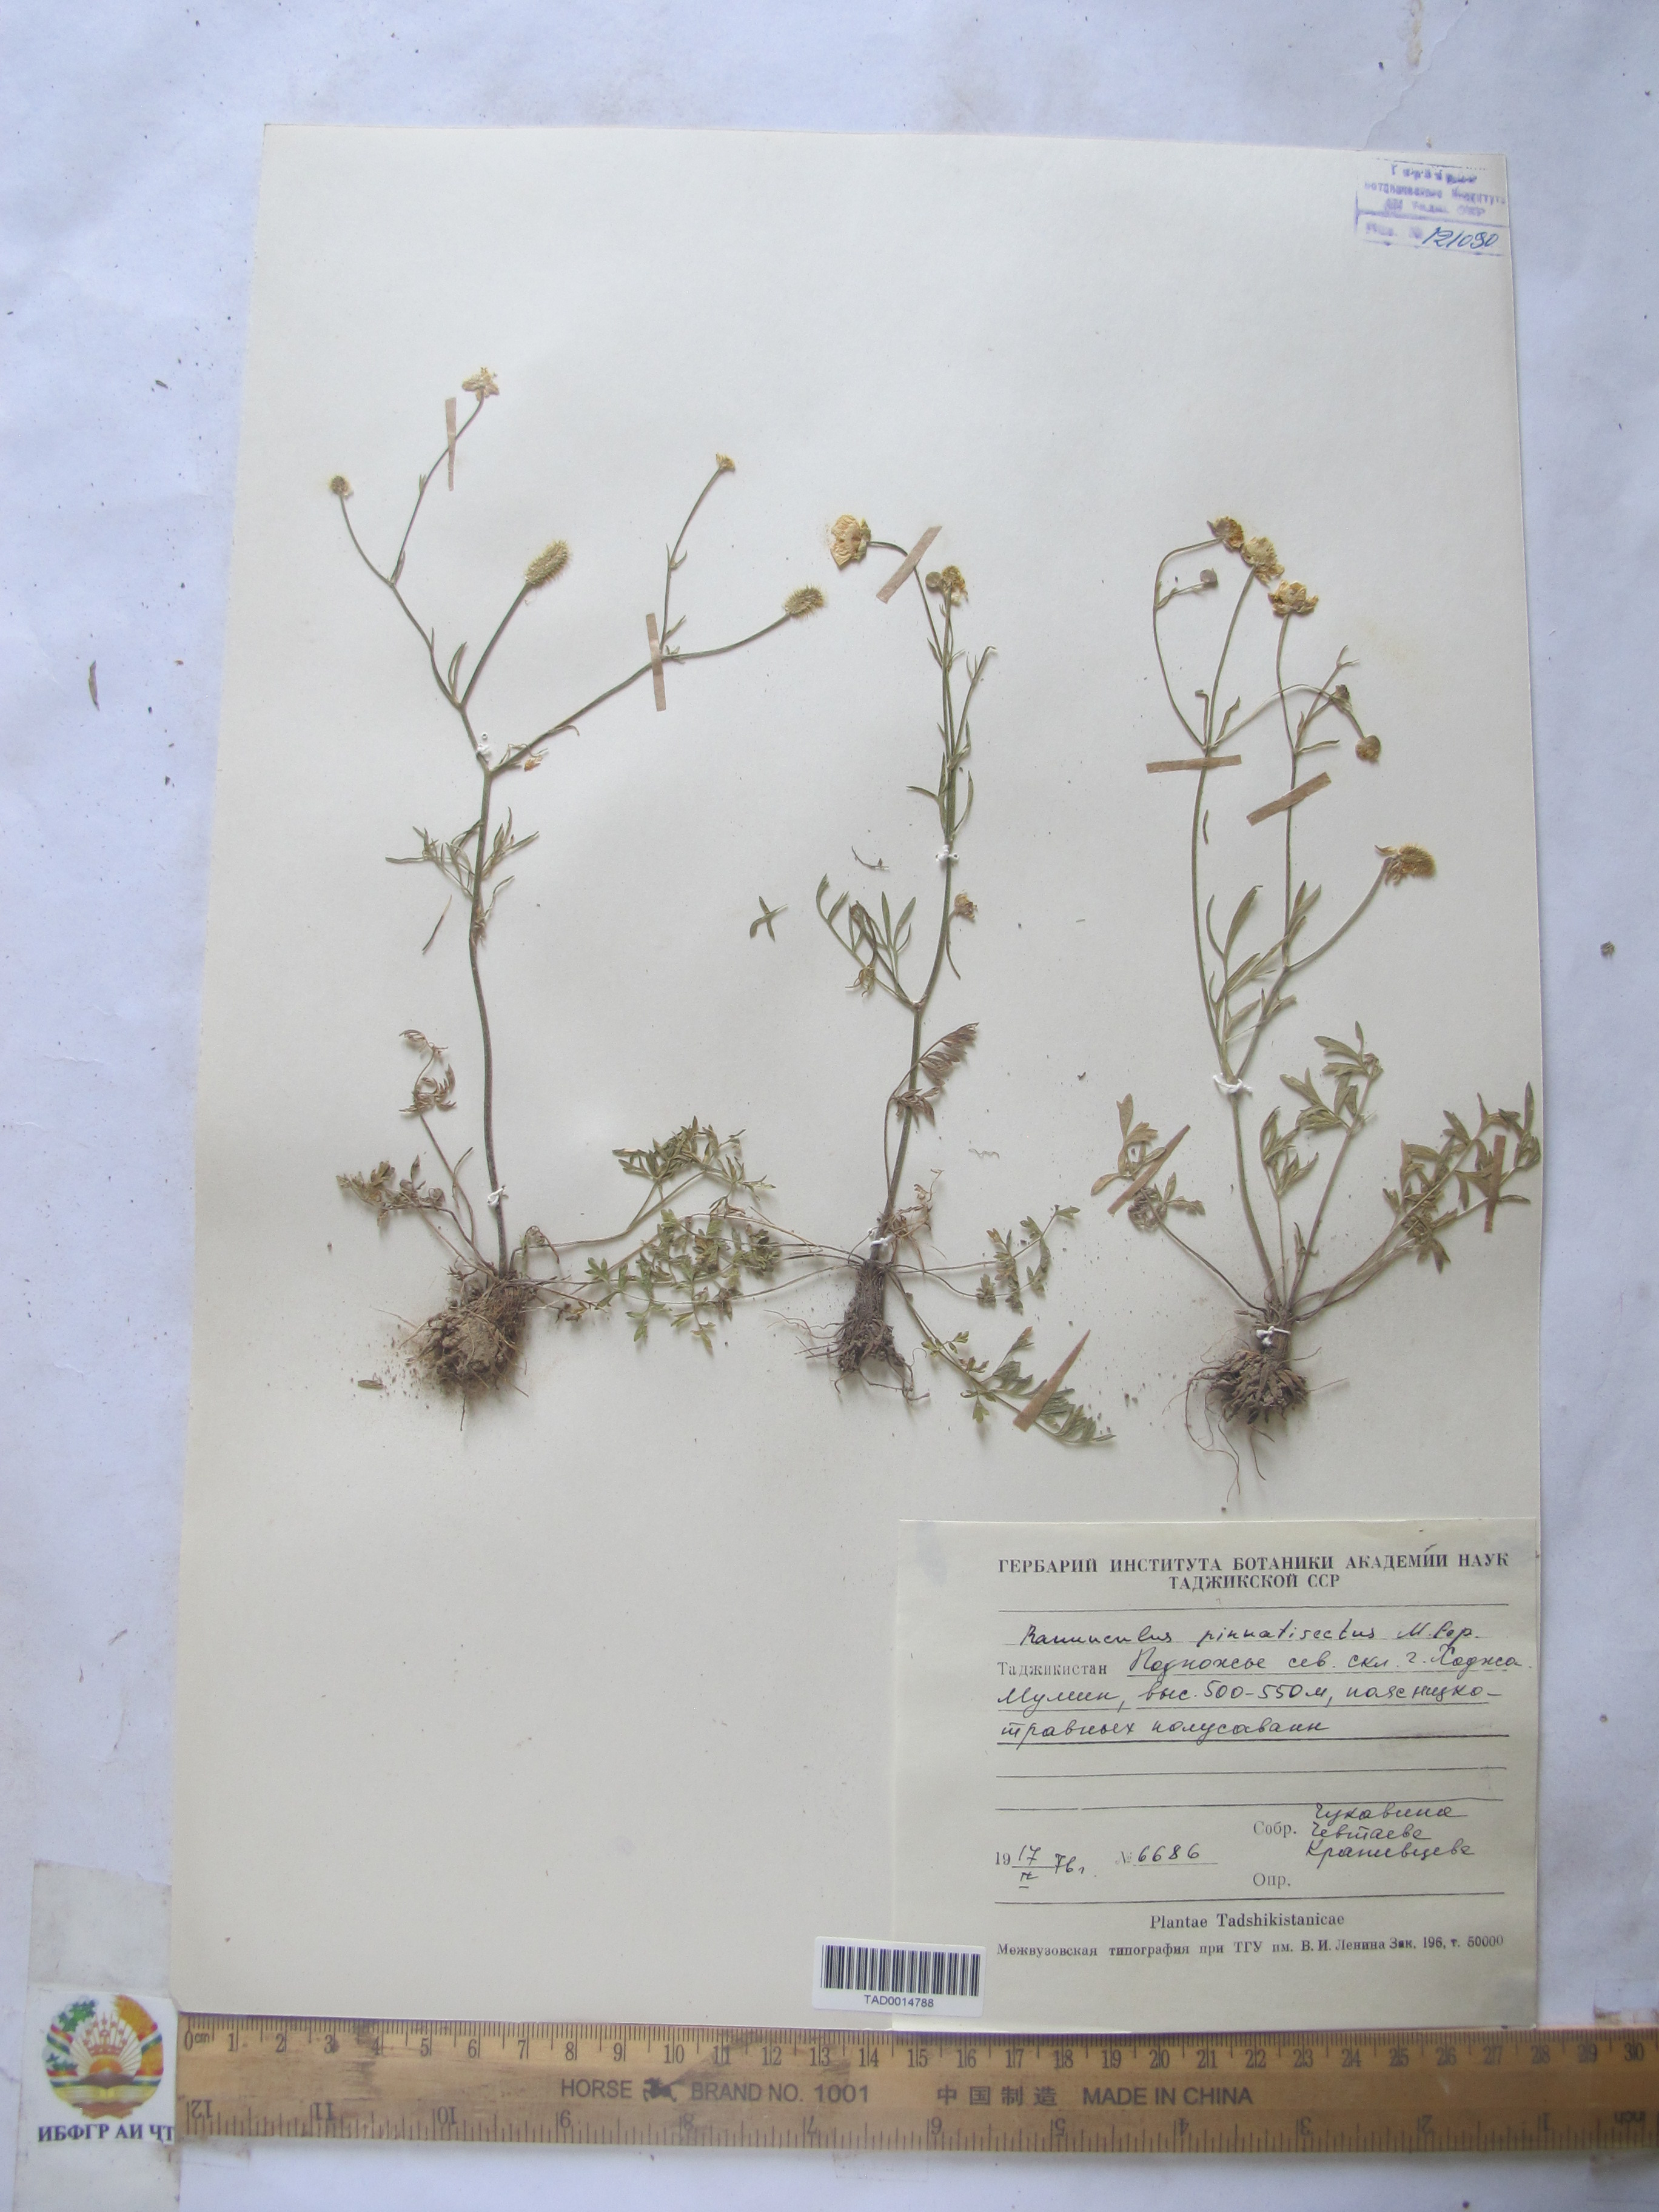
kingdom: Plantae
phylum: Tracheophyta
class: Magnoliopsida
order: Ranunculales
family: Ranunculaceae
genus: Ranunculus
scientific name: Ranunculus pinnatisectus
